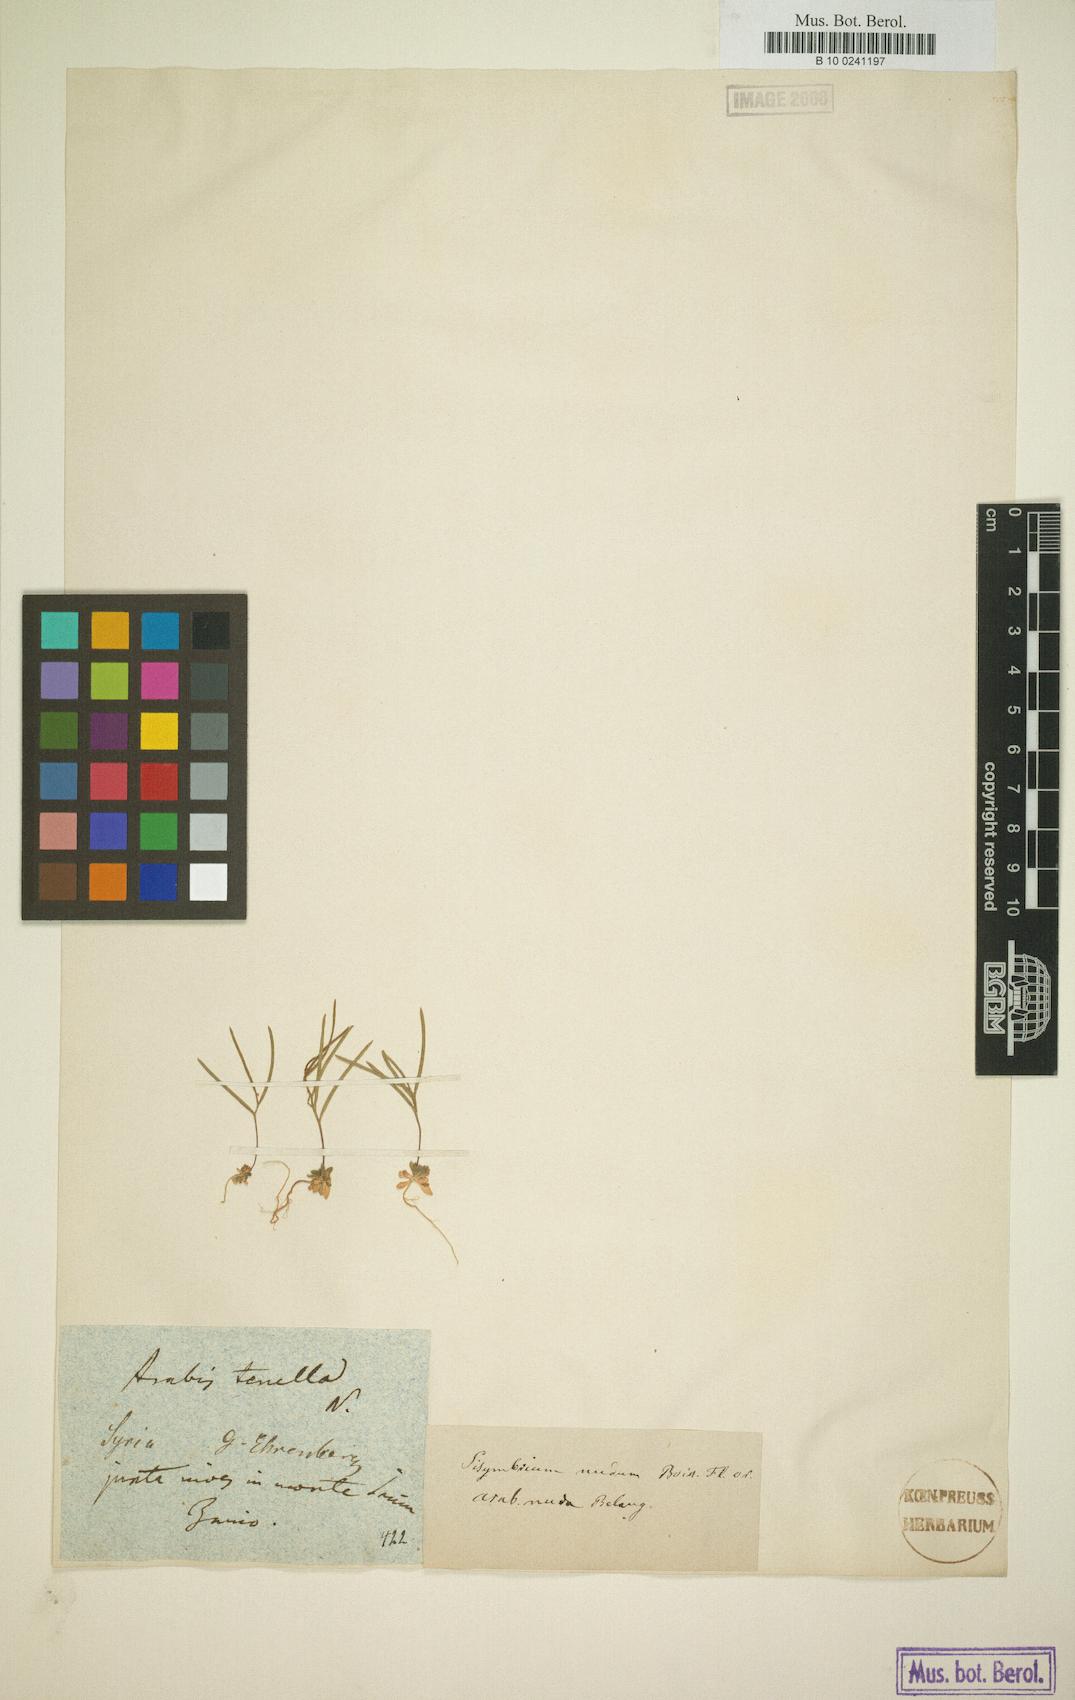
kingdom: Plantae
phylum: Tracheophyta
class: Magnoliopsida
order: Brassicales
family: Brassicaceae
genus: Arabis
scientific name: Arabis collina
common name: Rosy cress
